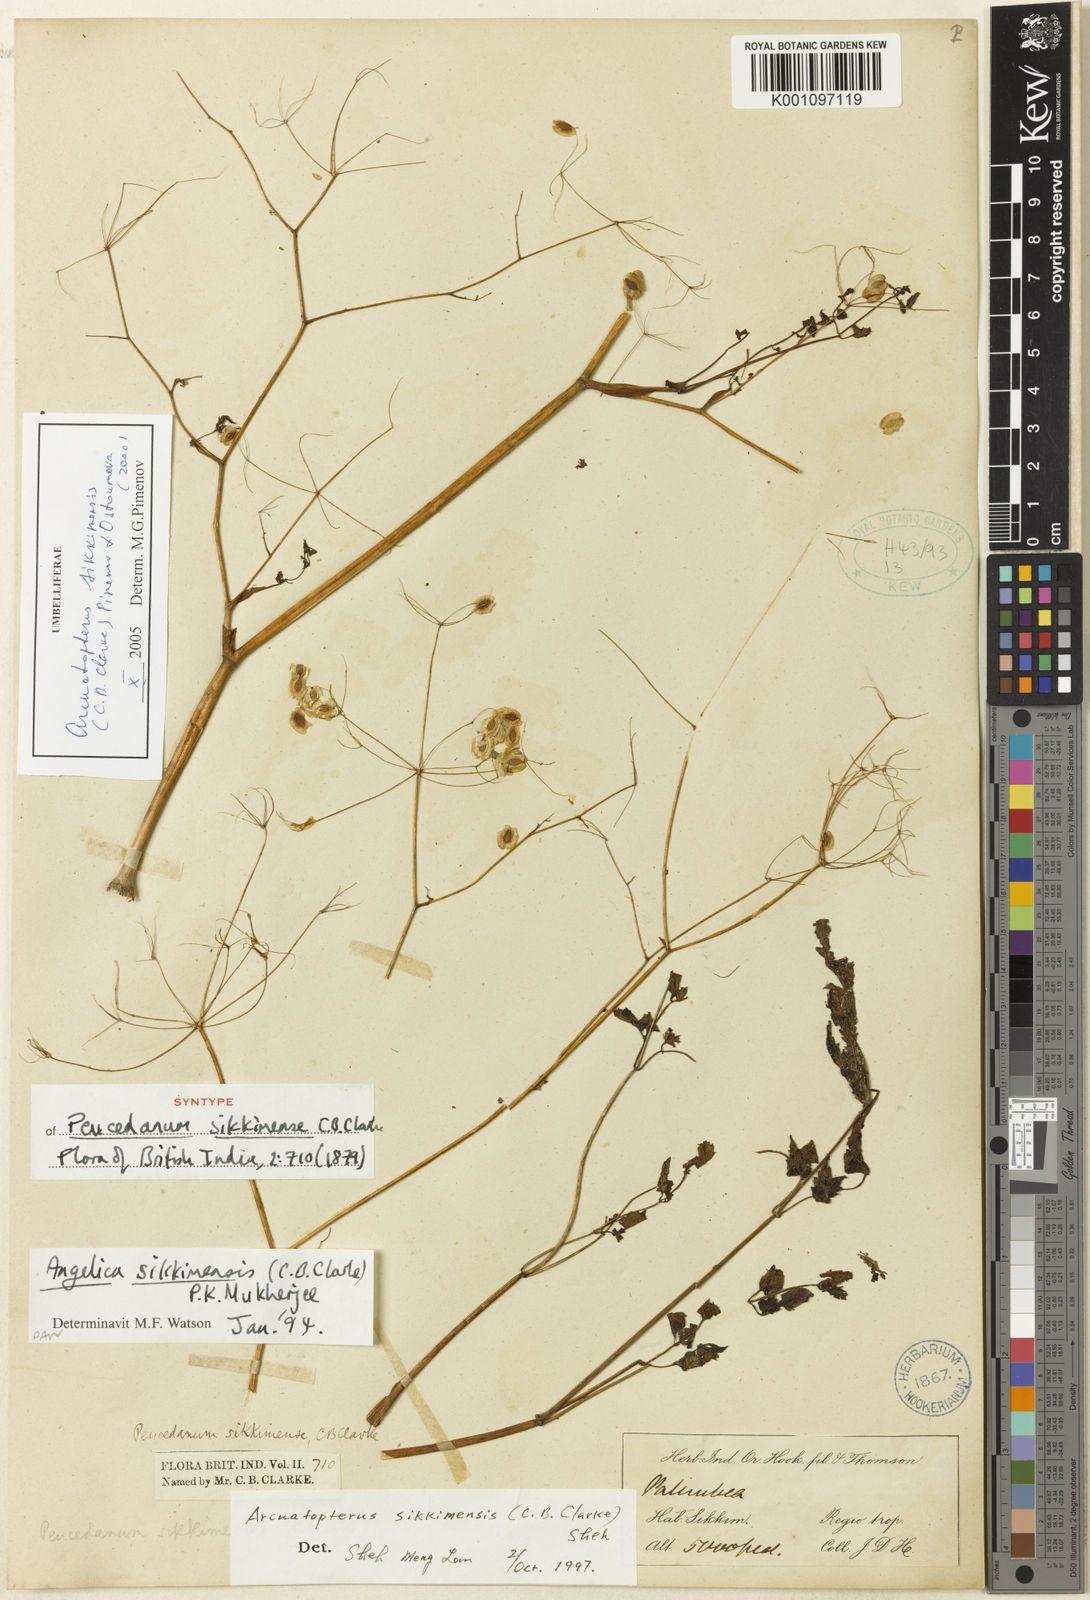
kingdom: Plantae
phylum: Tracheophyta
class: Magnoliopsida
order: Apiales
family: Apiaceae
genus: Arcuatopterus
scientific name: Arcuatopterus sikkimensis
